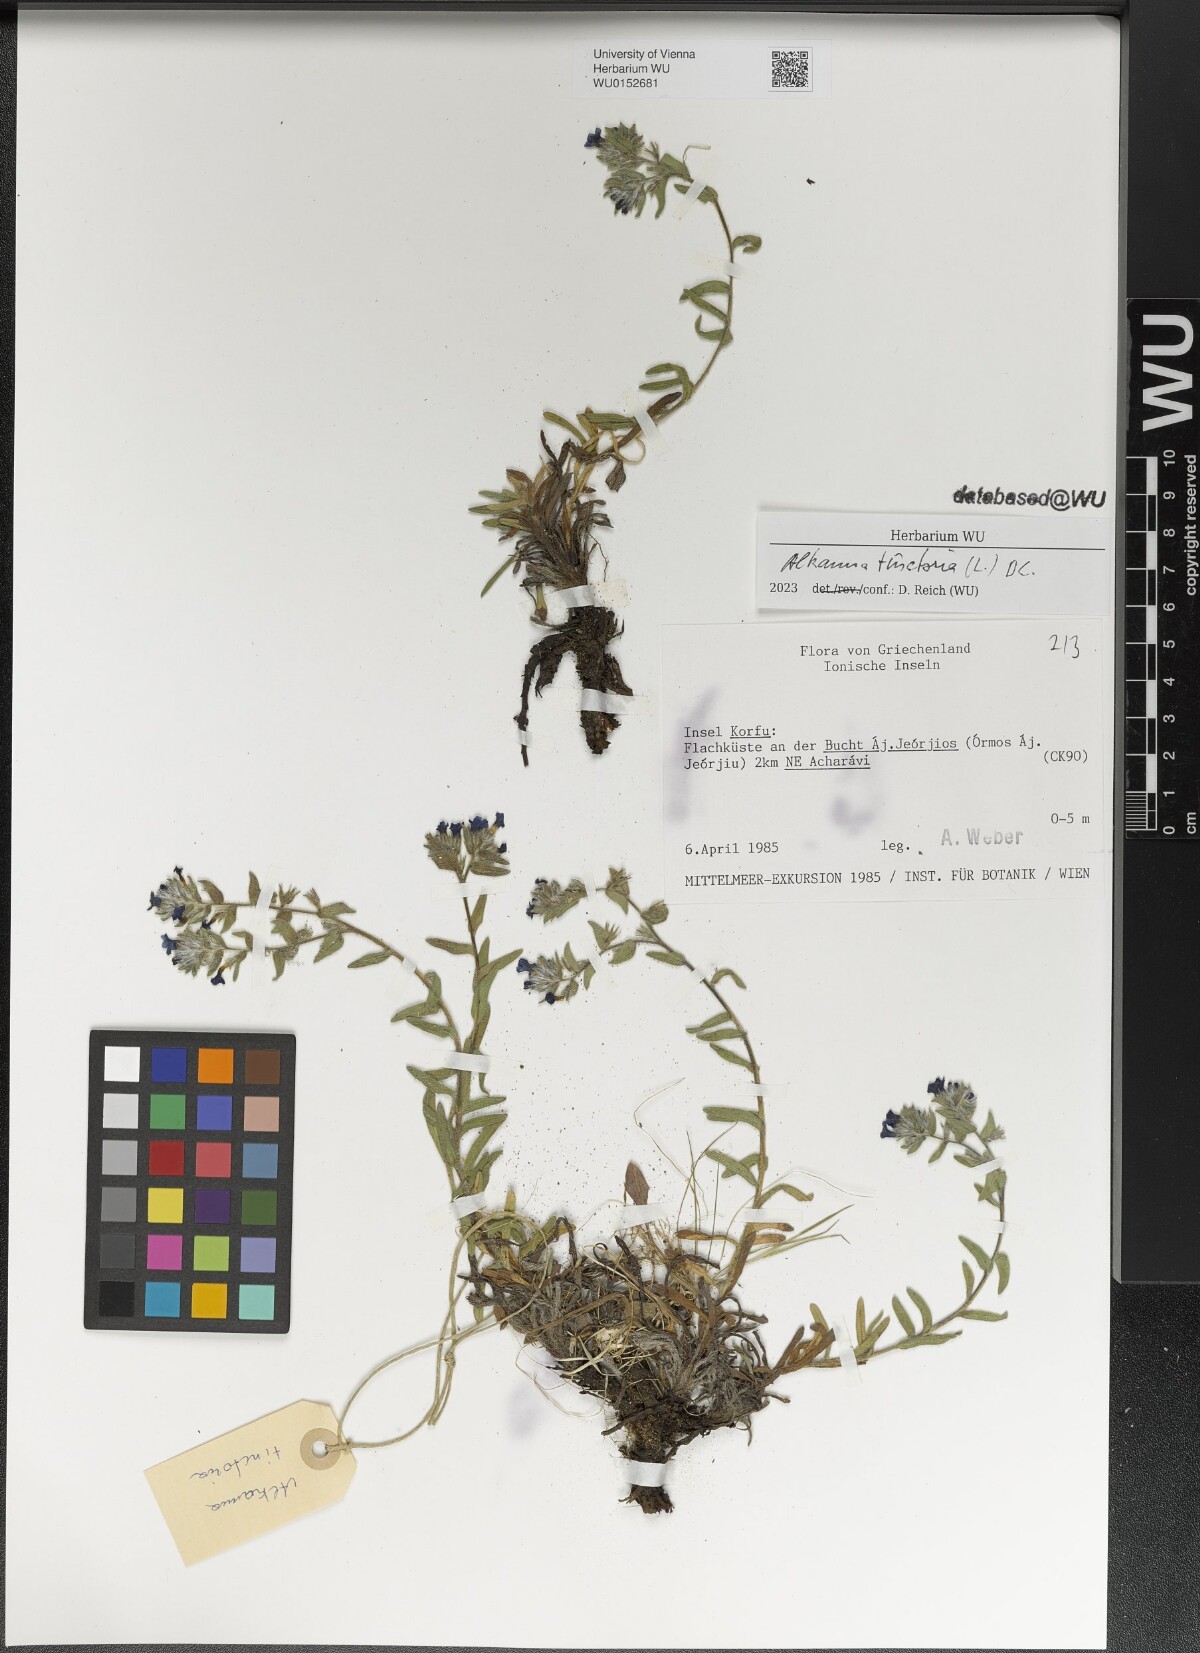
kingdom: Plantae
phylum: Tracheophyta
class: Magnoliopsida
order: Boraginales
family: Boraginaceae
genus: Alkanna
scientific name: Alkanna tinctoria
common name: Dyer's-alkanet
